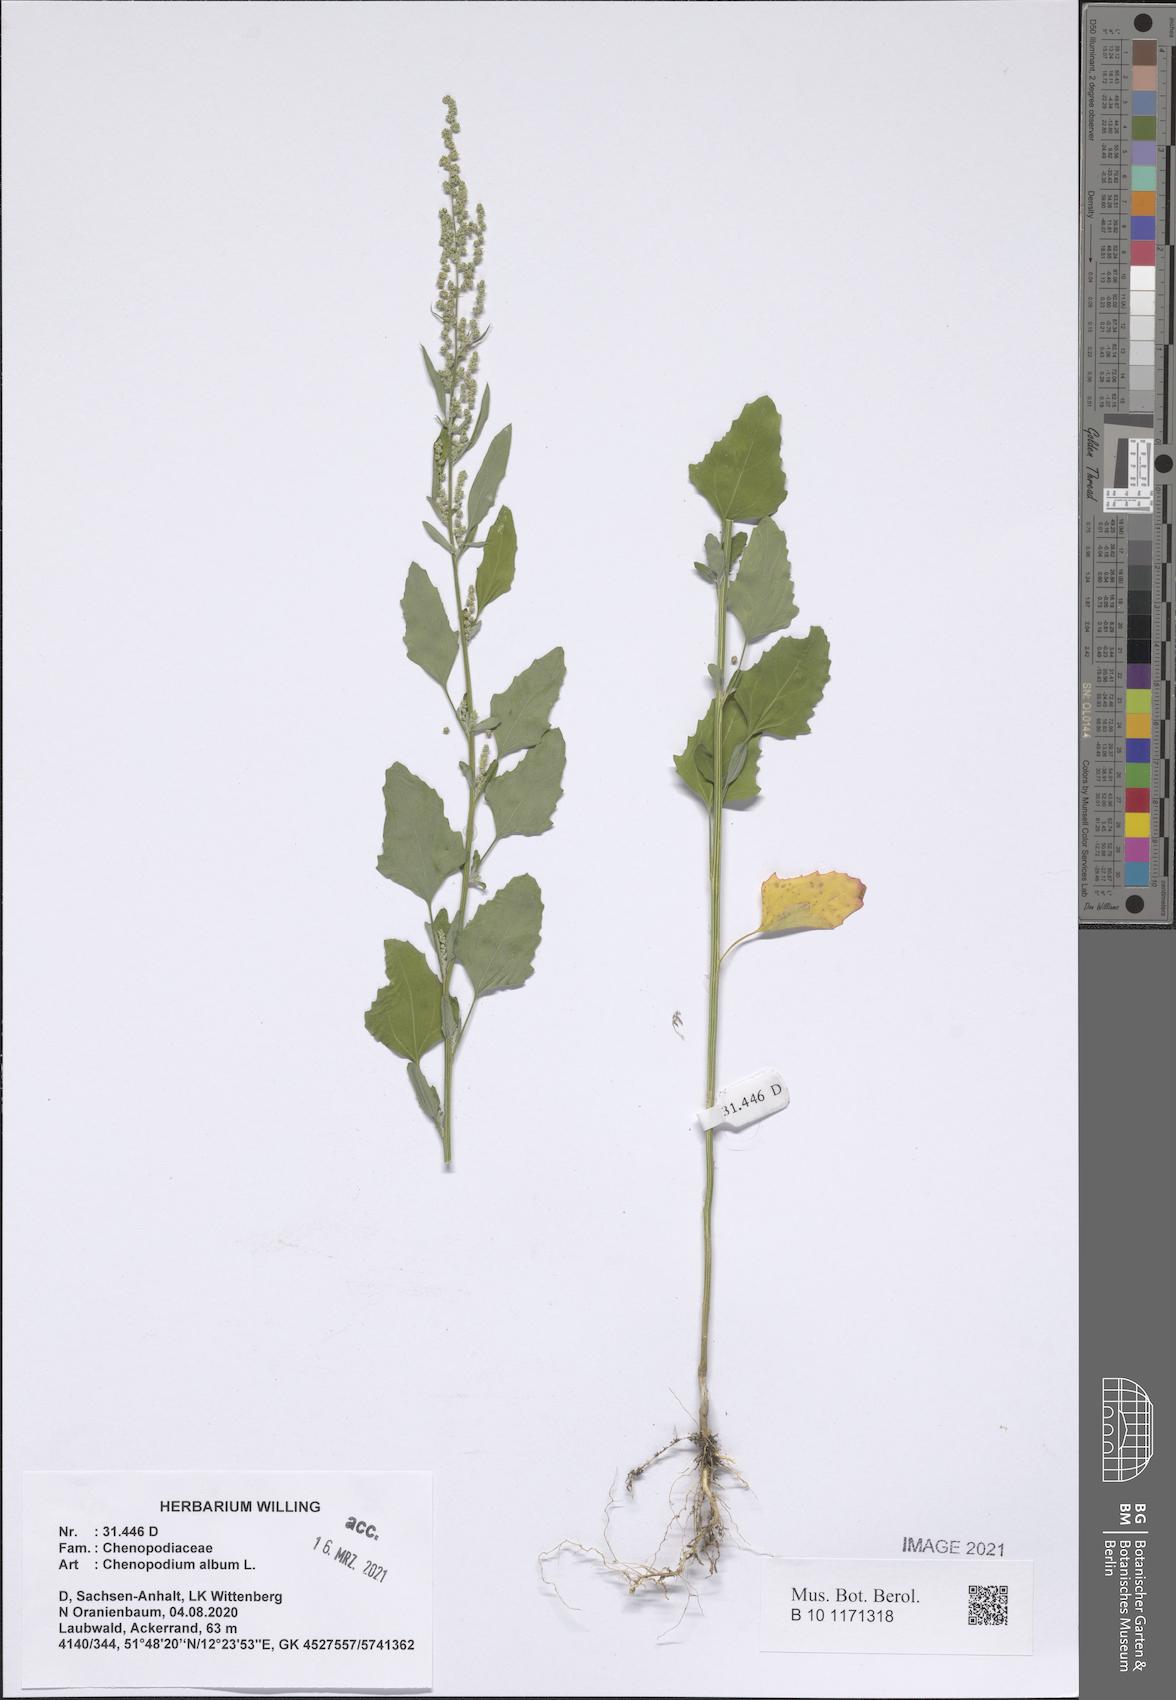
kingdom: Plantae
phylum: Tracheophyta
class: Magnoliopsida
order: Caryophyllales
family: Amaranthaceae
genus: Chenopodium
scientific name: Chenopodium album
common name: Fat-hen
